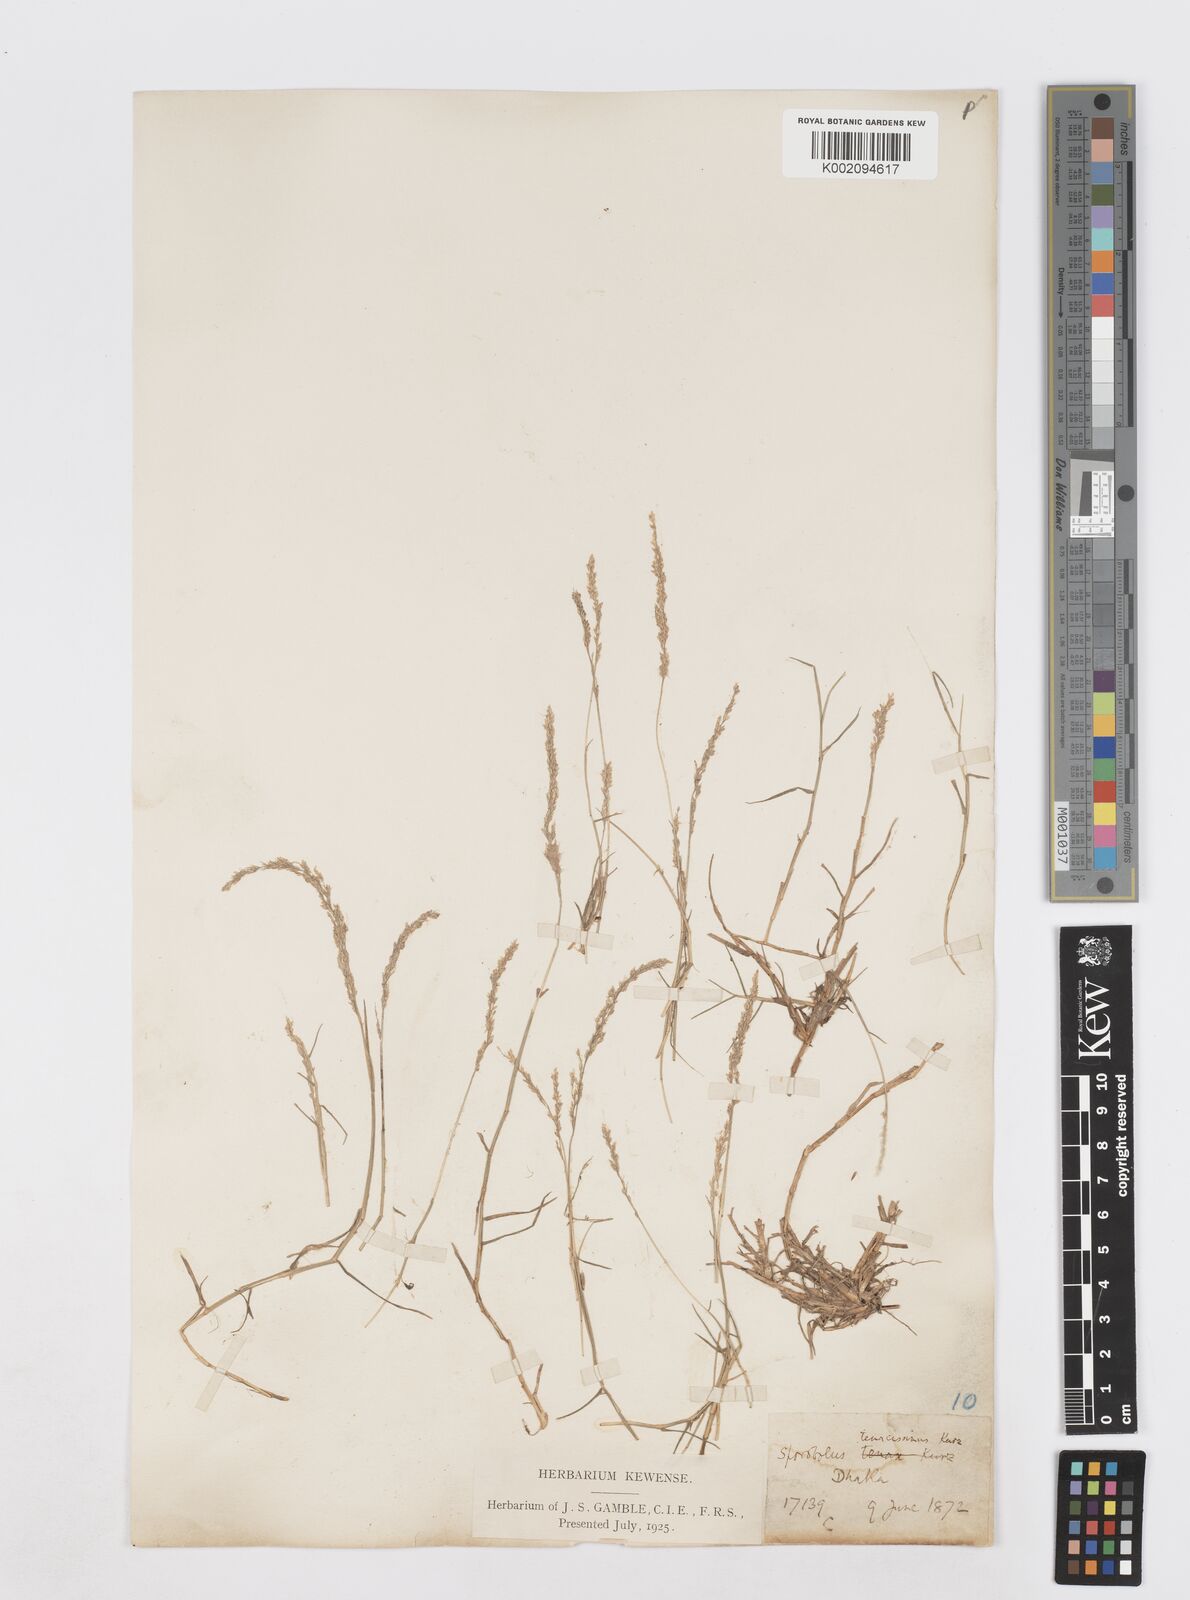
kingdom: Plantae
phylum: Tracheophyta
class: Liliopsida
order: Poales
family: Poaceae
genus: Sporobolus
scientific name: Sporobolus virginicus
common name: Beach dropseed
